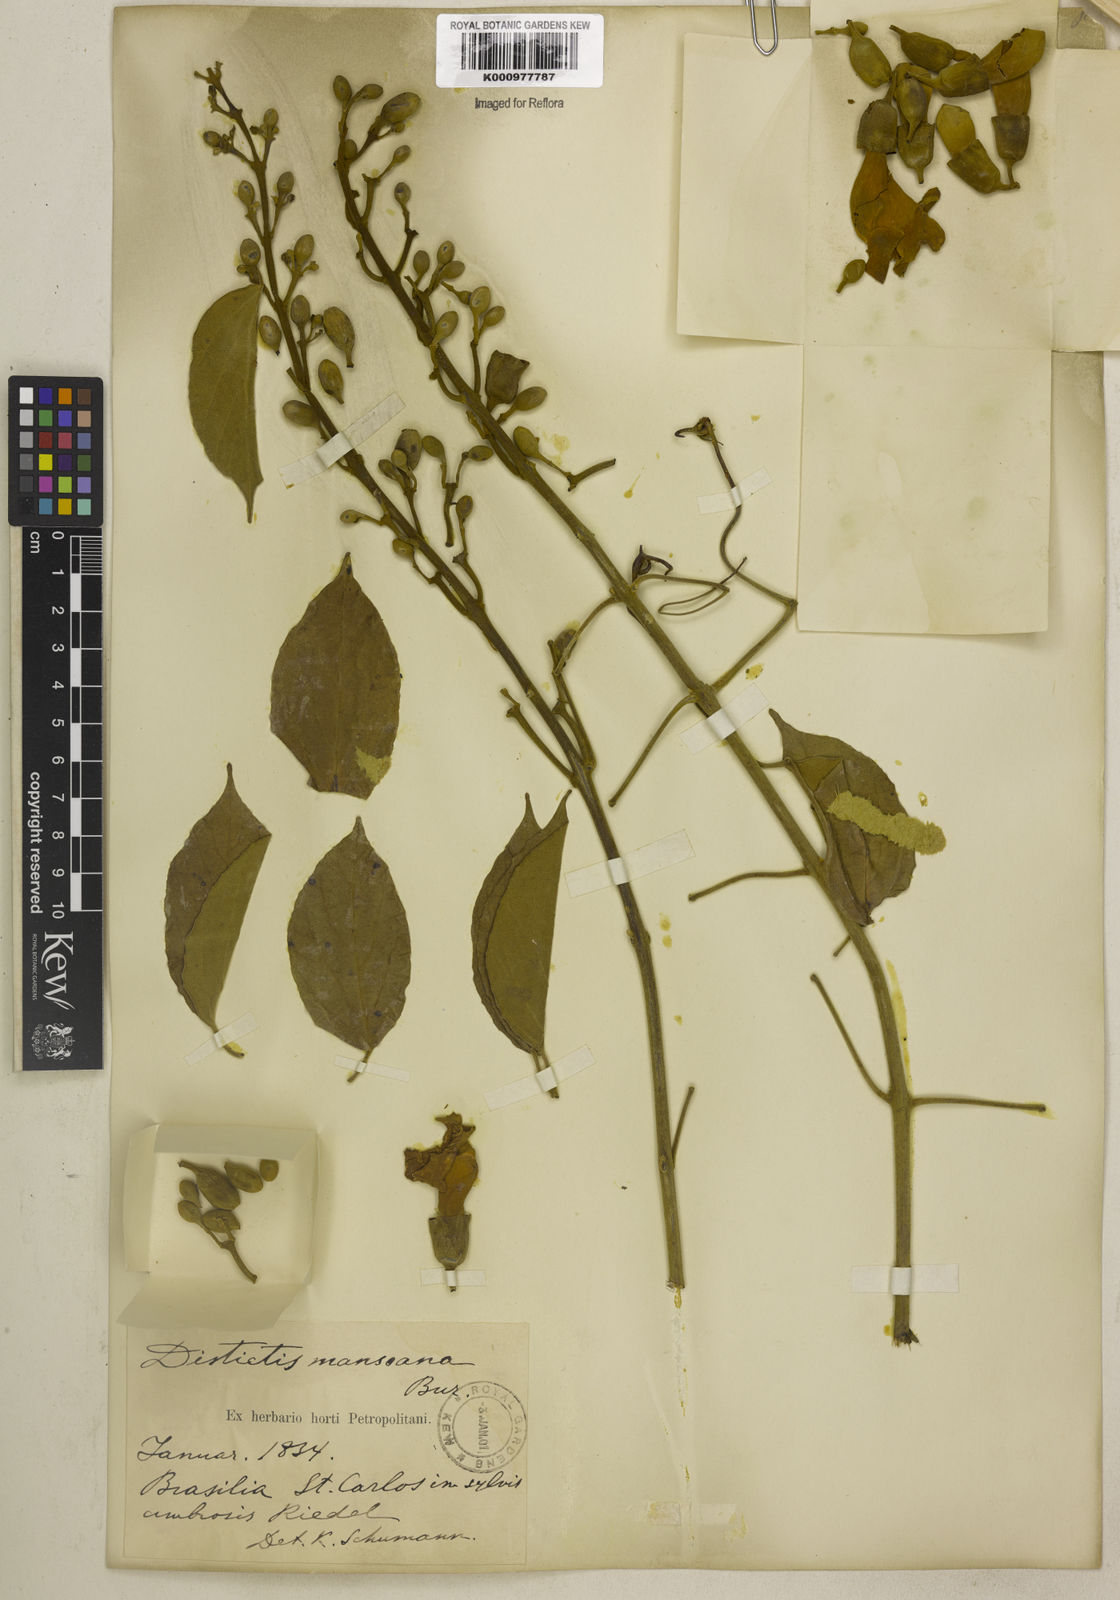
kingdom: Plantae
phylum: Tracheophyta
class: Magnoliopsida
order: Lamiales
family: Bignoniaceae
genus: Amphilophium
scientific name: Amphilophium mansoanum
